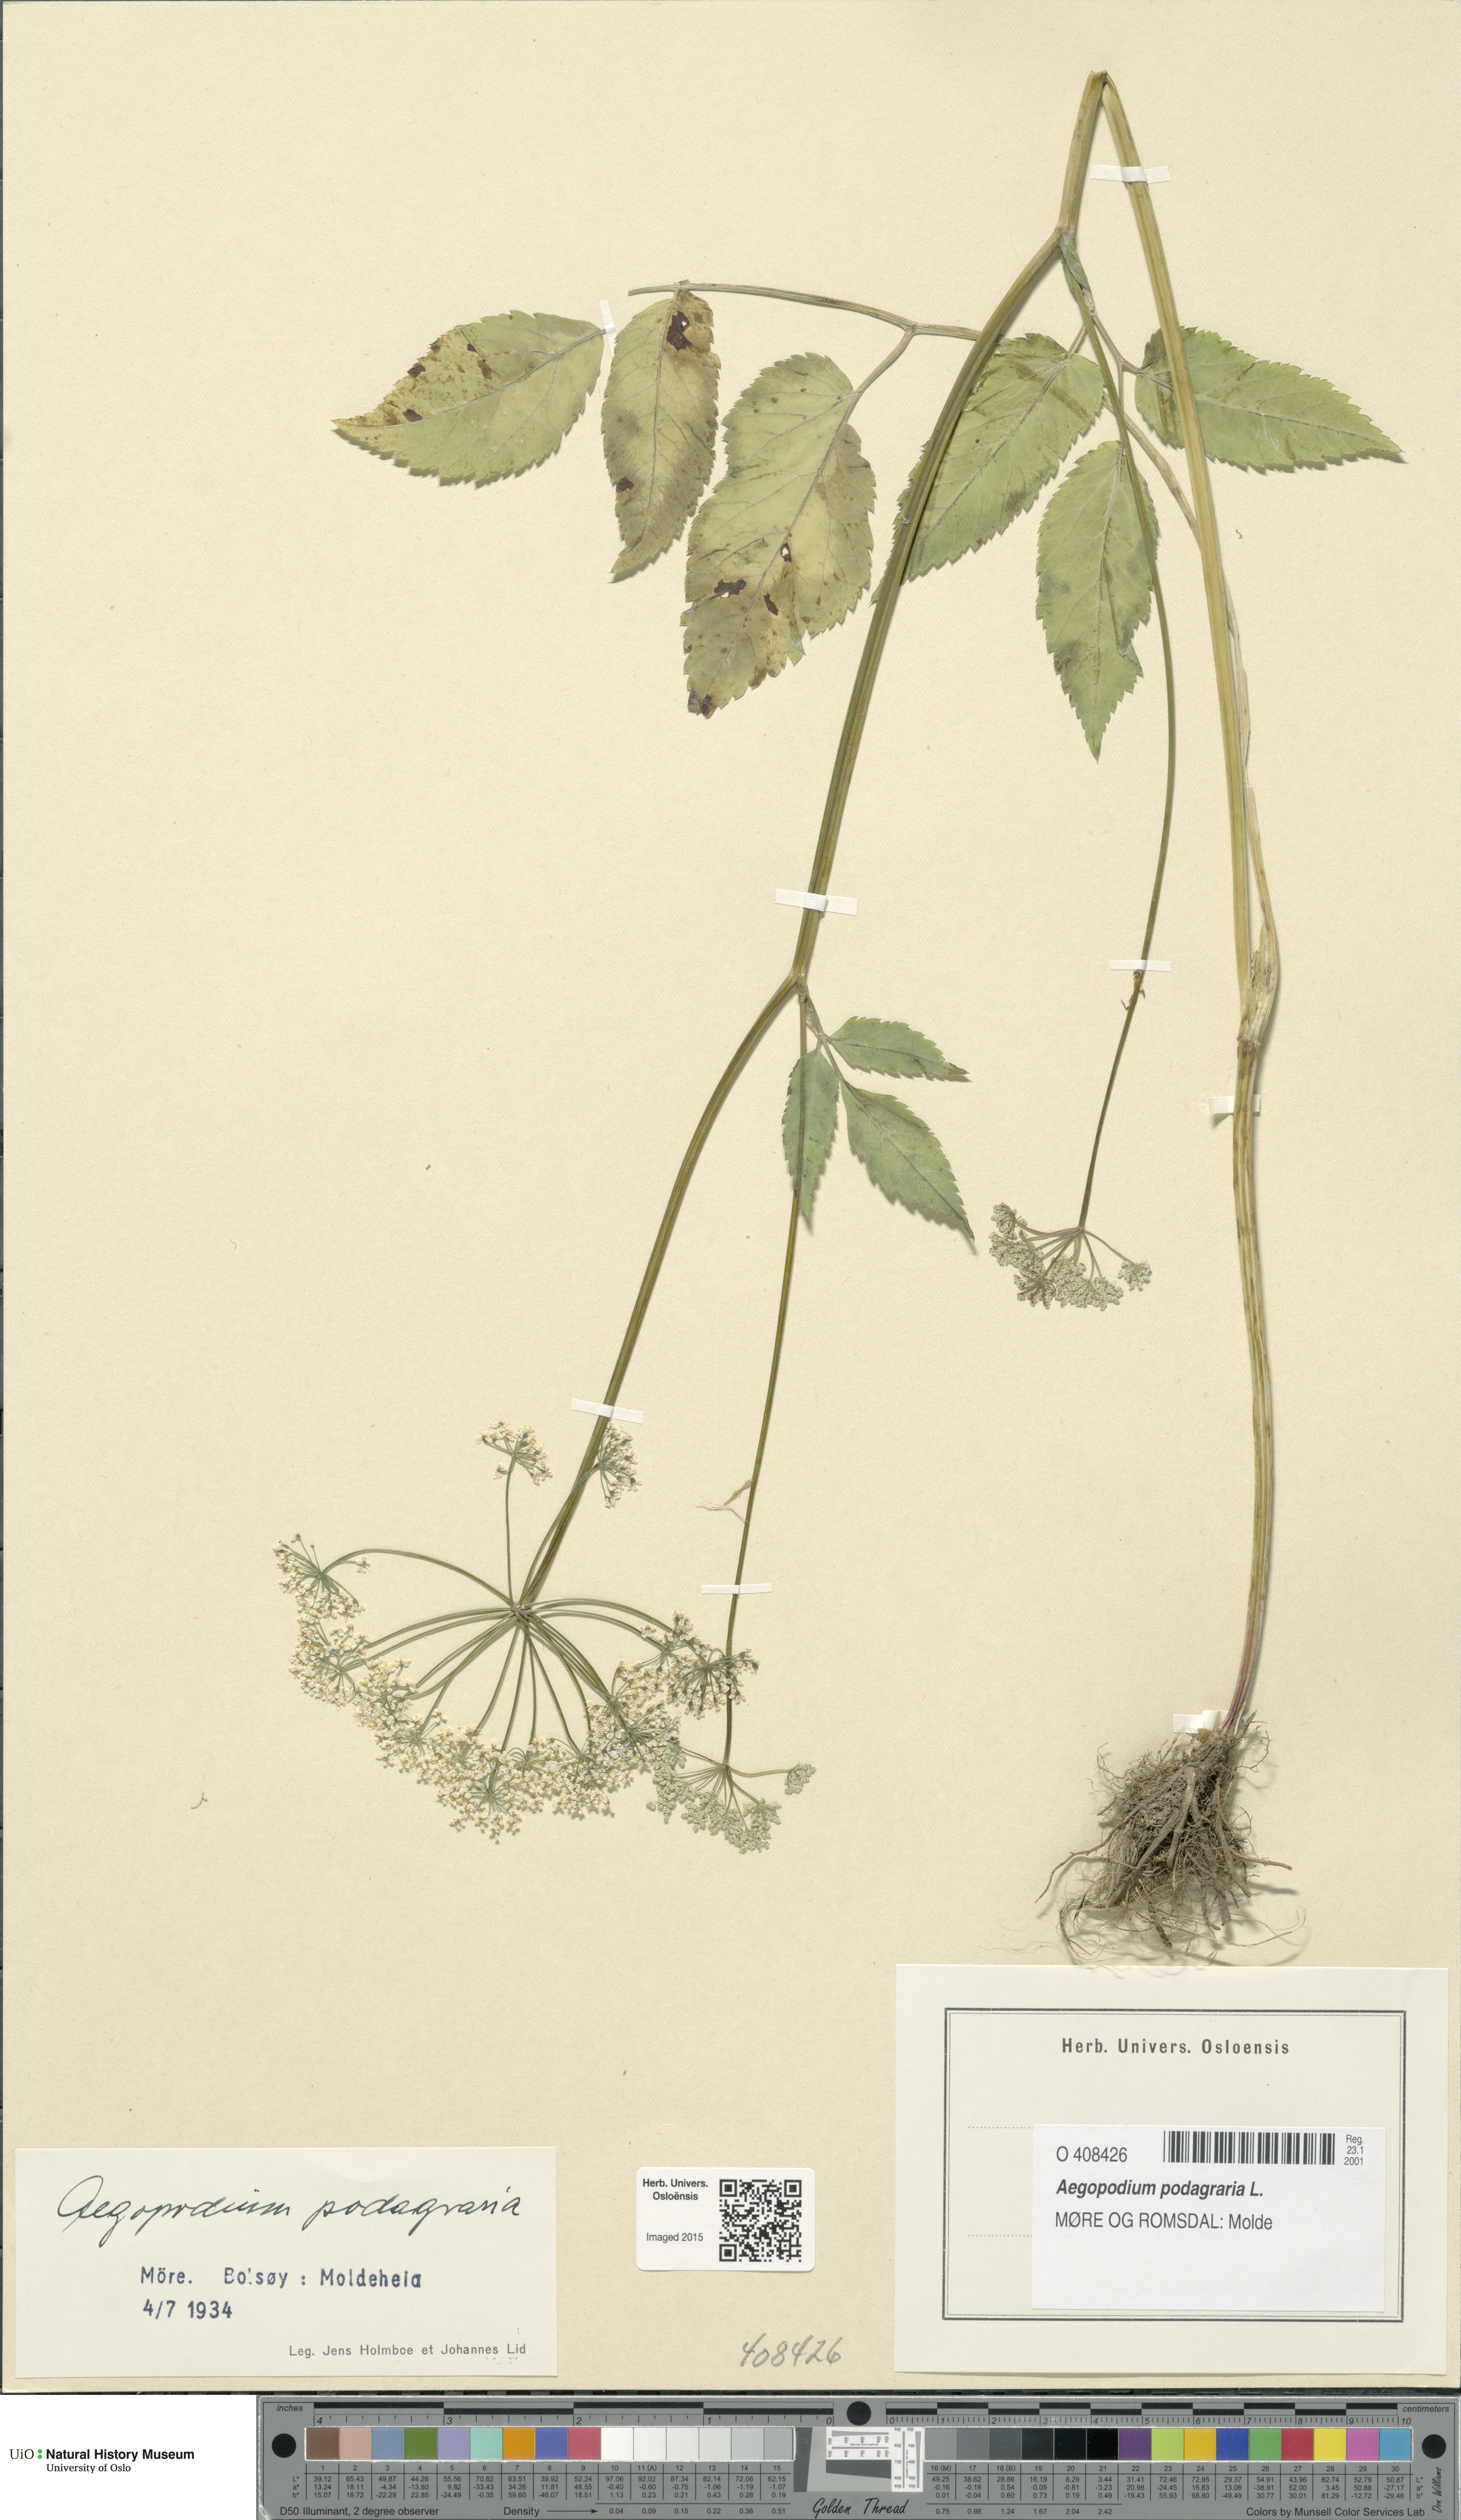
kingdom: Plantae
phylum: Tracheophyta
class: Magnoliopsida
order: Apiales
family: Apiaceae
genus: Aegopodium
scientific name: Aegopodium podagraria
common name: Ground-elder
